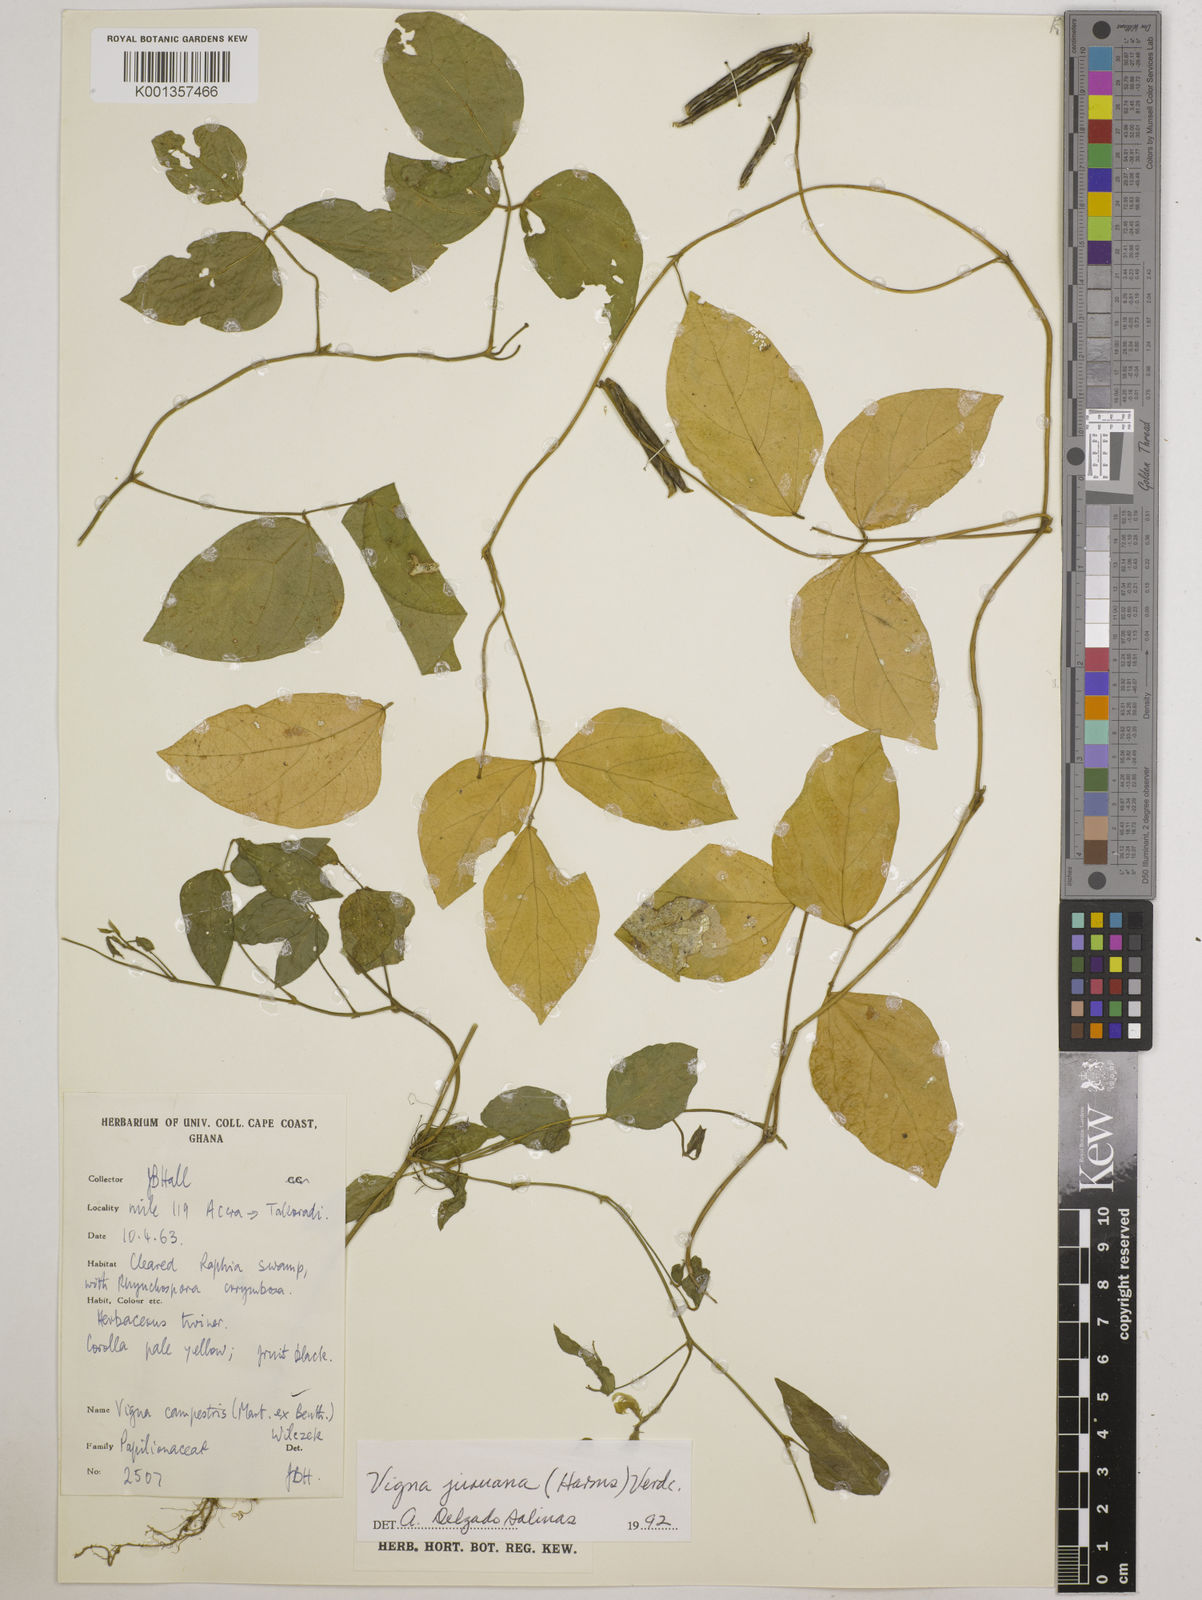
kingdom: Plantae
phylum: Tracheophyta
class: Magnoliopsida
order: Fabales
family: Fabaceae
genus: Vigna
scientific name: Vigna juruana
